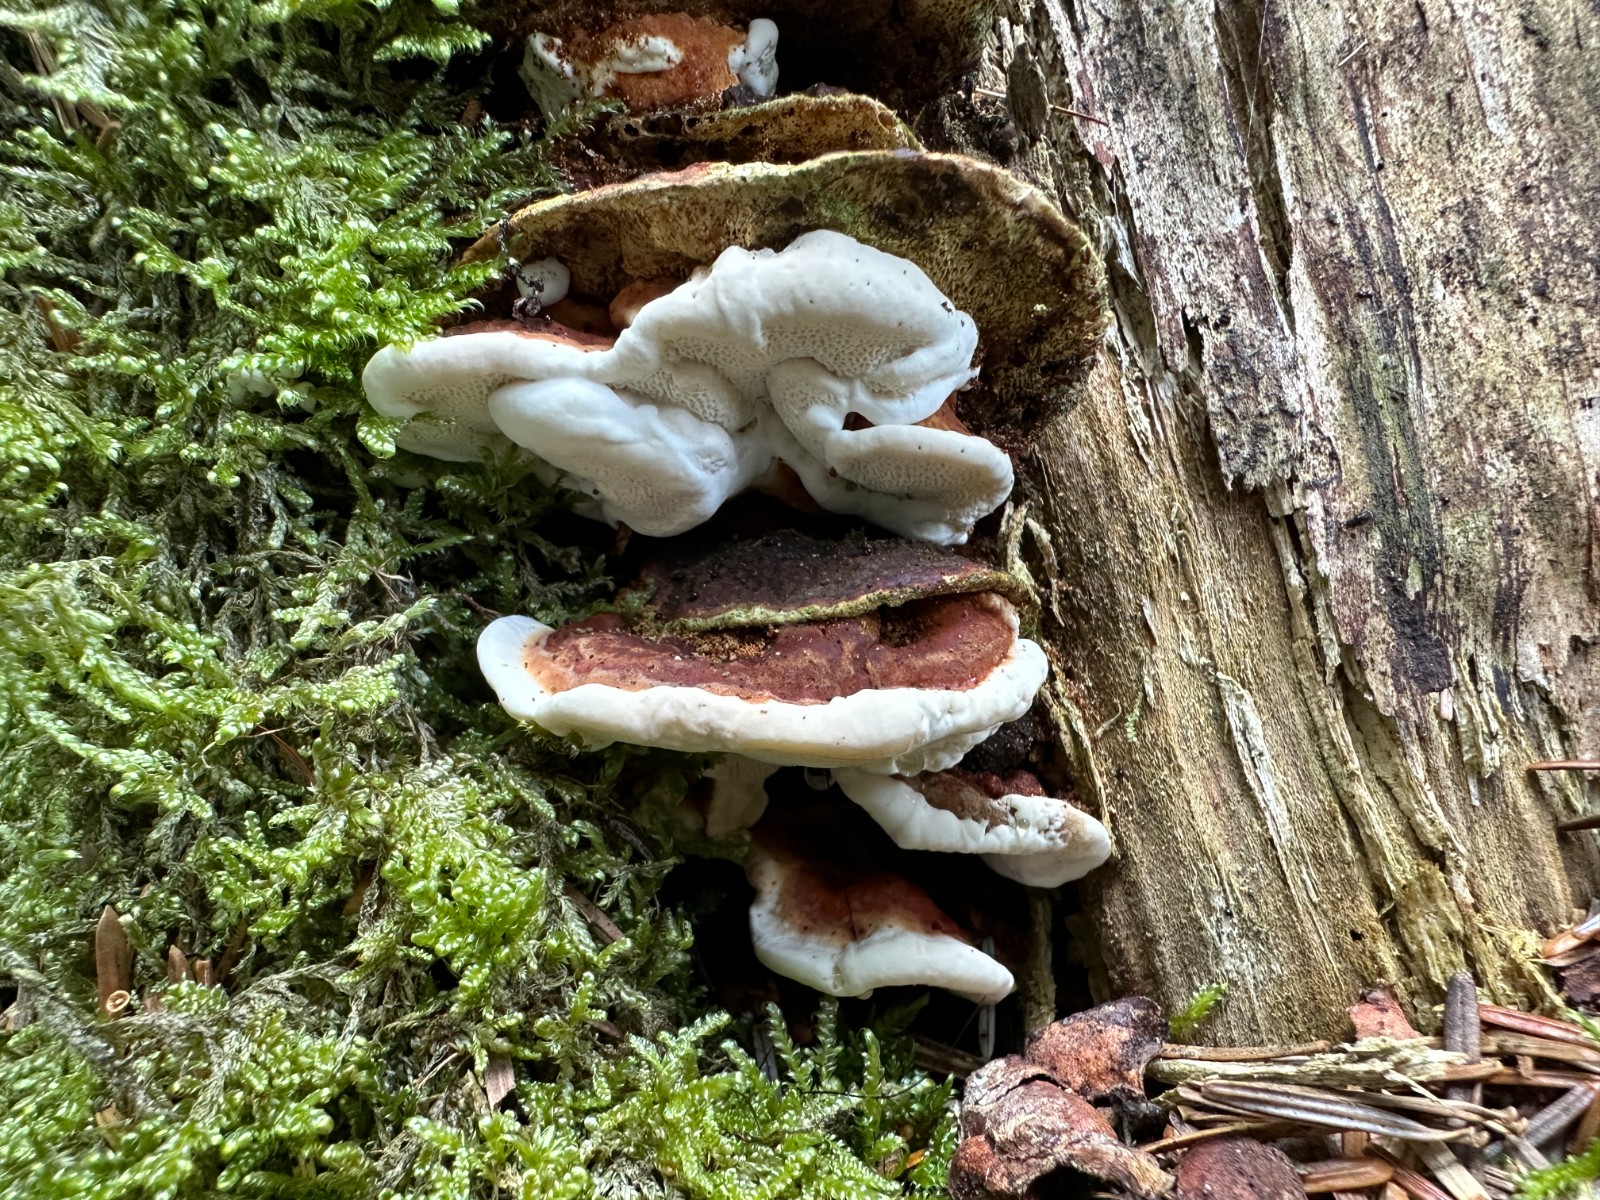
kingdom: Fungi
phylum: Basidiomycota
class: Agaricomycetes
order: Russulales
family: Bondarzewiaceae
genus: Heterobasidion
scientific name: Heterobasidion annosum
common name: almindelig rodfordærver
